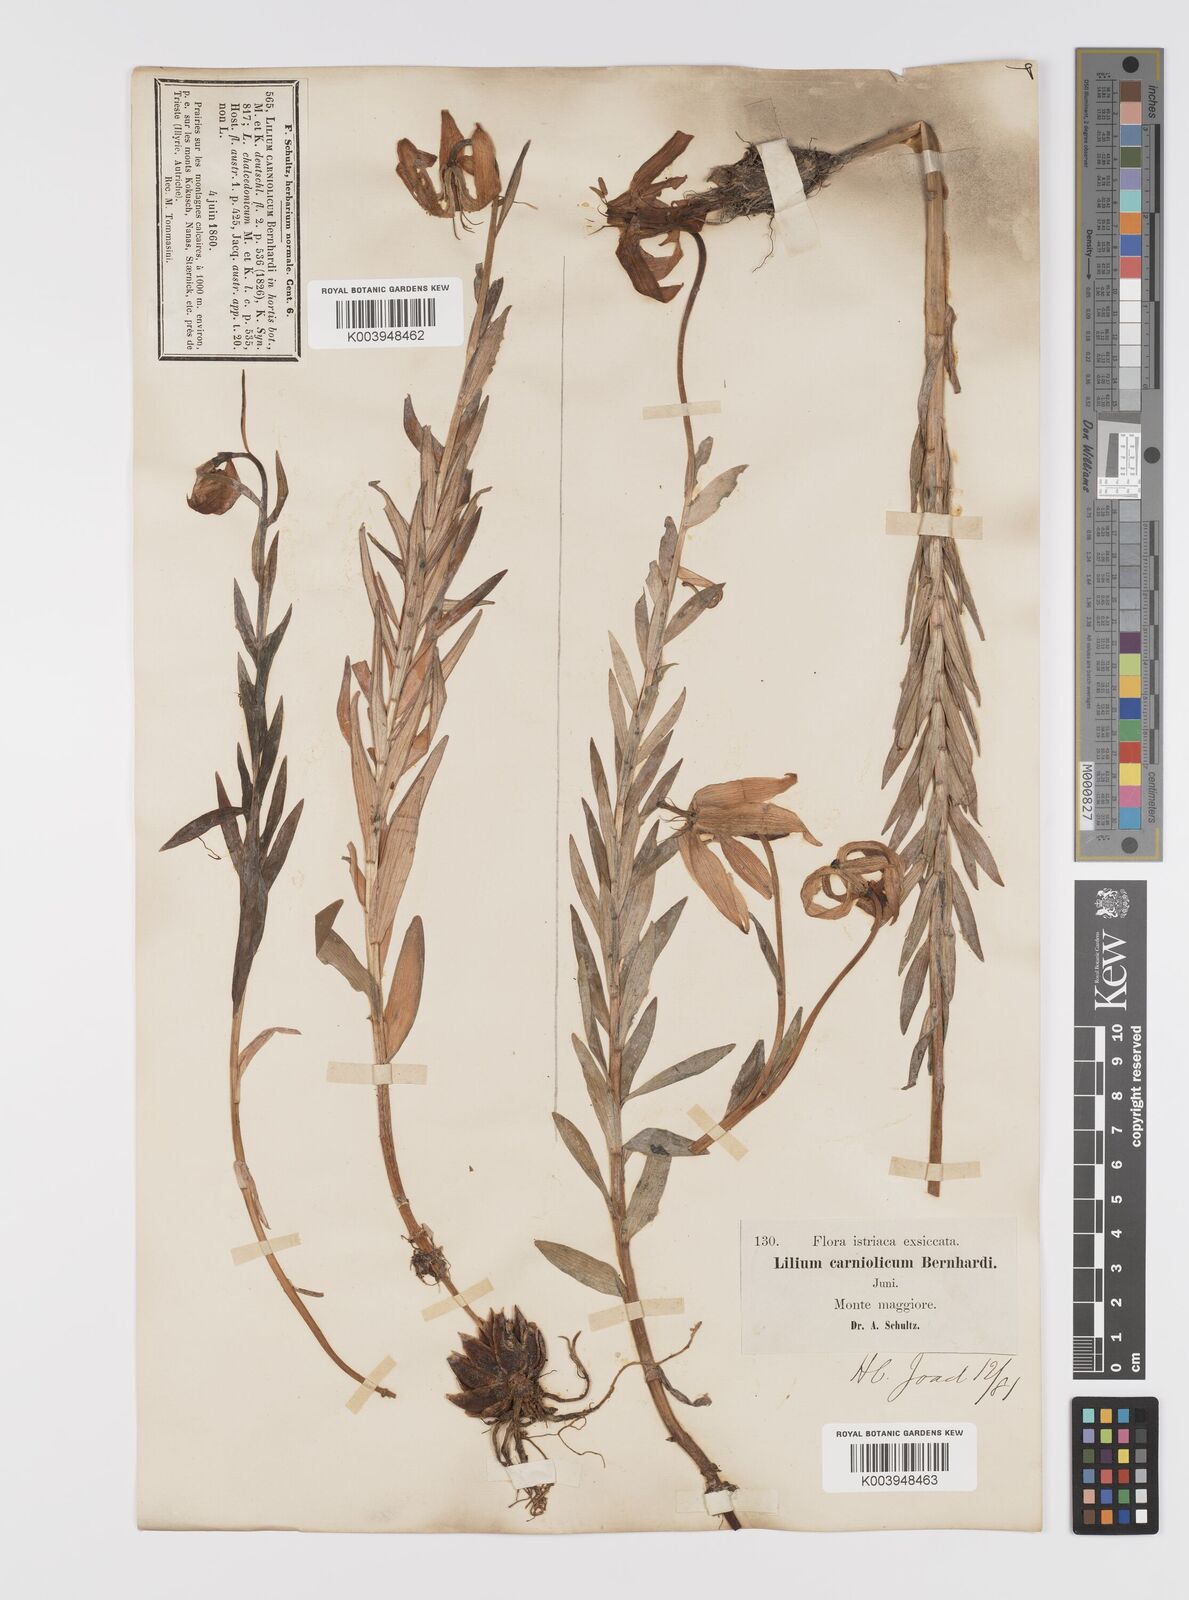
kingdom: Plantae
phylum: Tracheophyta
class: Liliopsida
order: Liliales
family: Liliaceae
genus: Lilium
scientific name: Lilium
